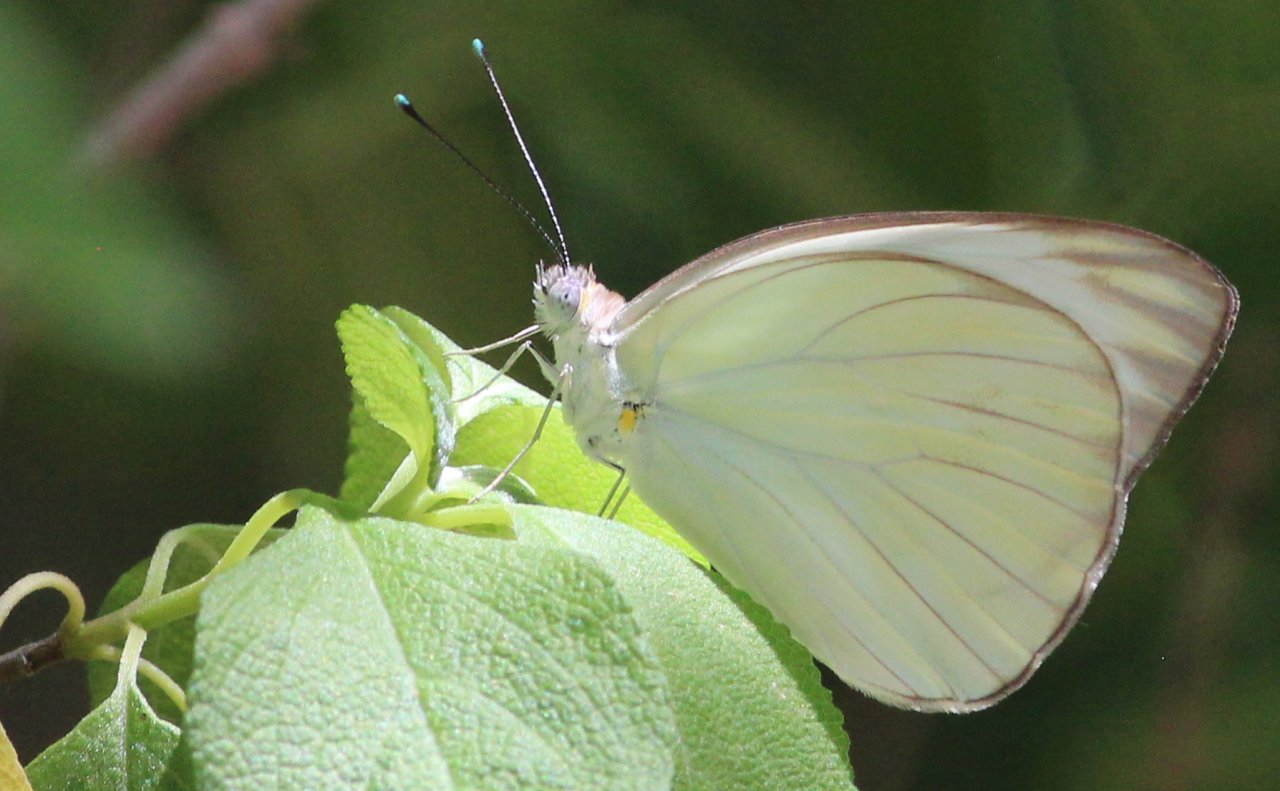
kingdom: Animalia
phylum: Arthropoda
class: Insecta
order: Lepidoptera
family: Pieridae
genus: Ascia
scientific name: Ascia monuste
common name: Great Southern White
